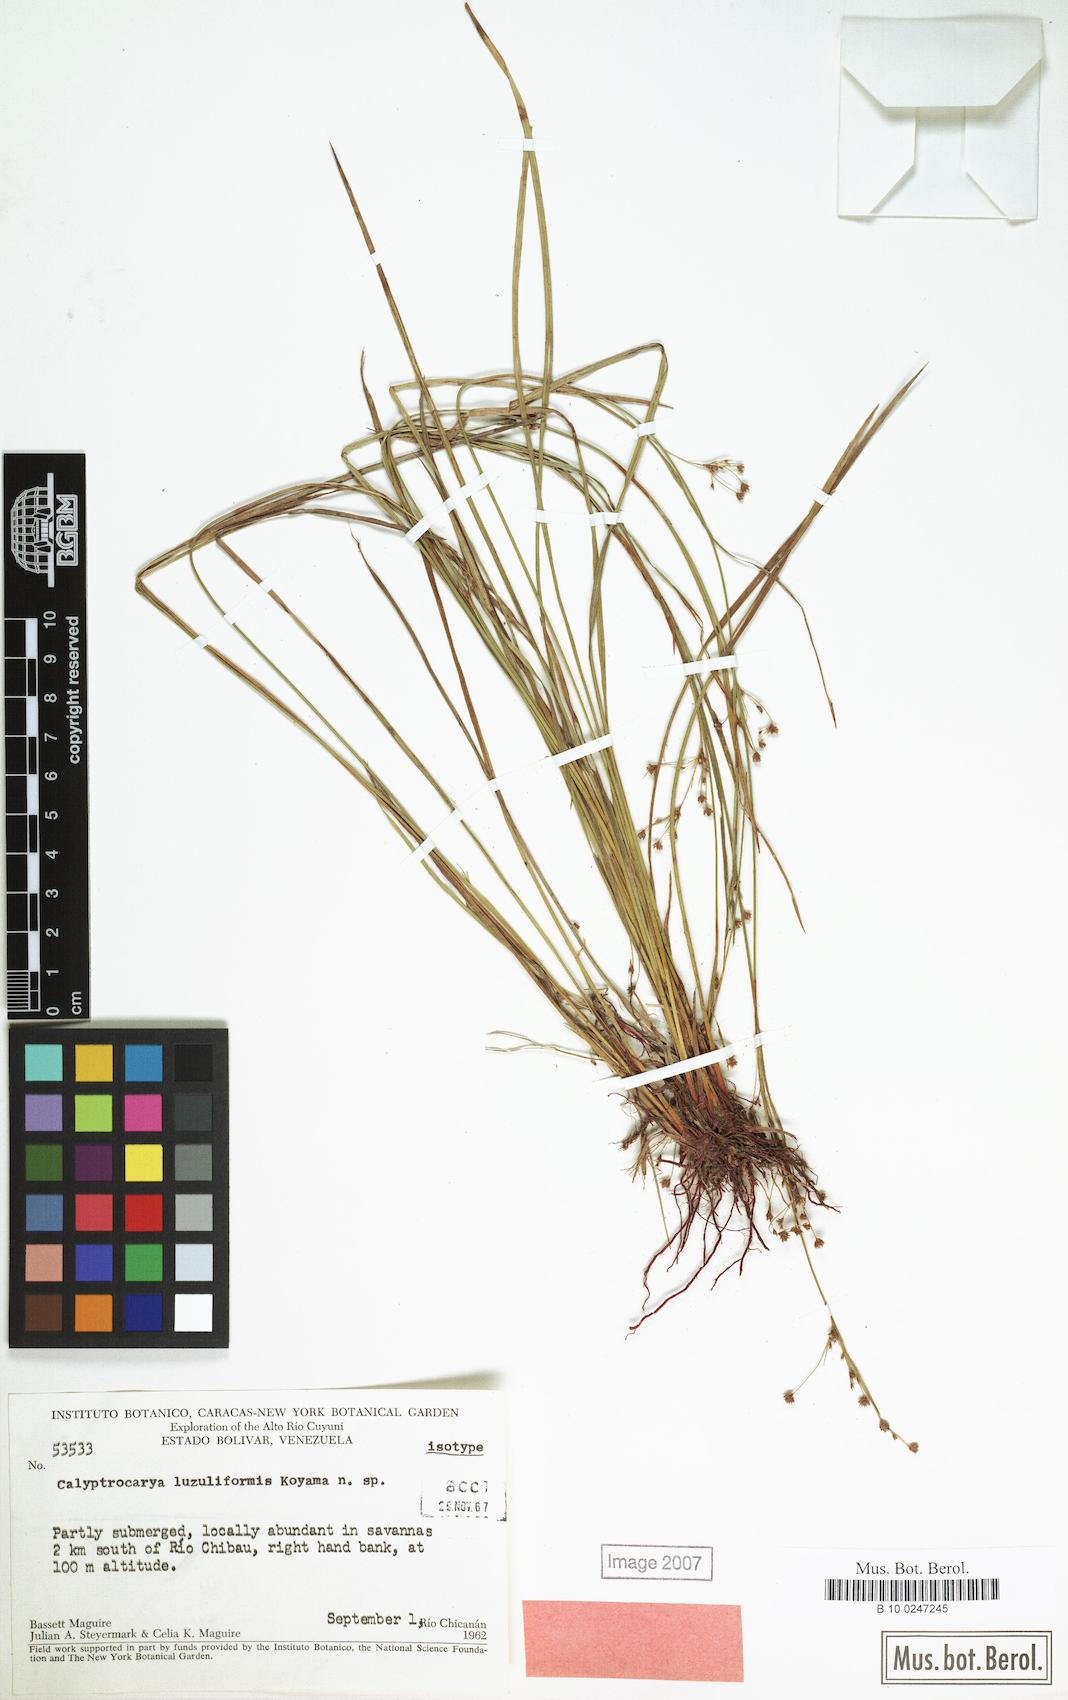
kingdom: Plantae
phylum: Tracheophyta
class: Liliopsida
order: Poales
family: Cyperaceae
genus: Calyptrocarya
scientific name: Calyptrocarya luzuliformis
